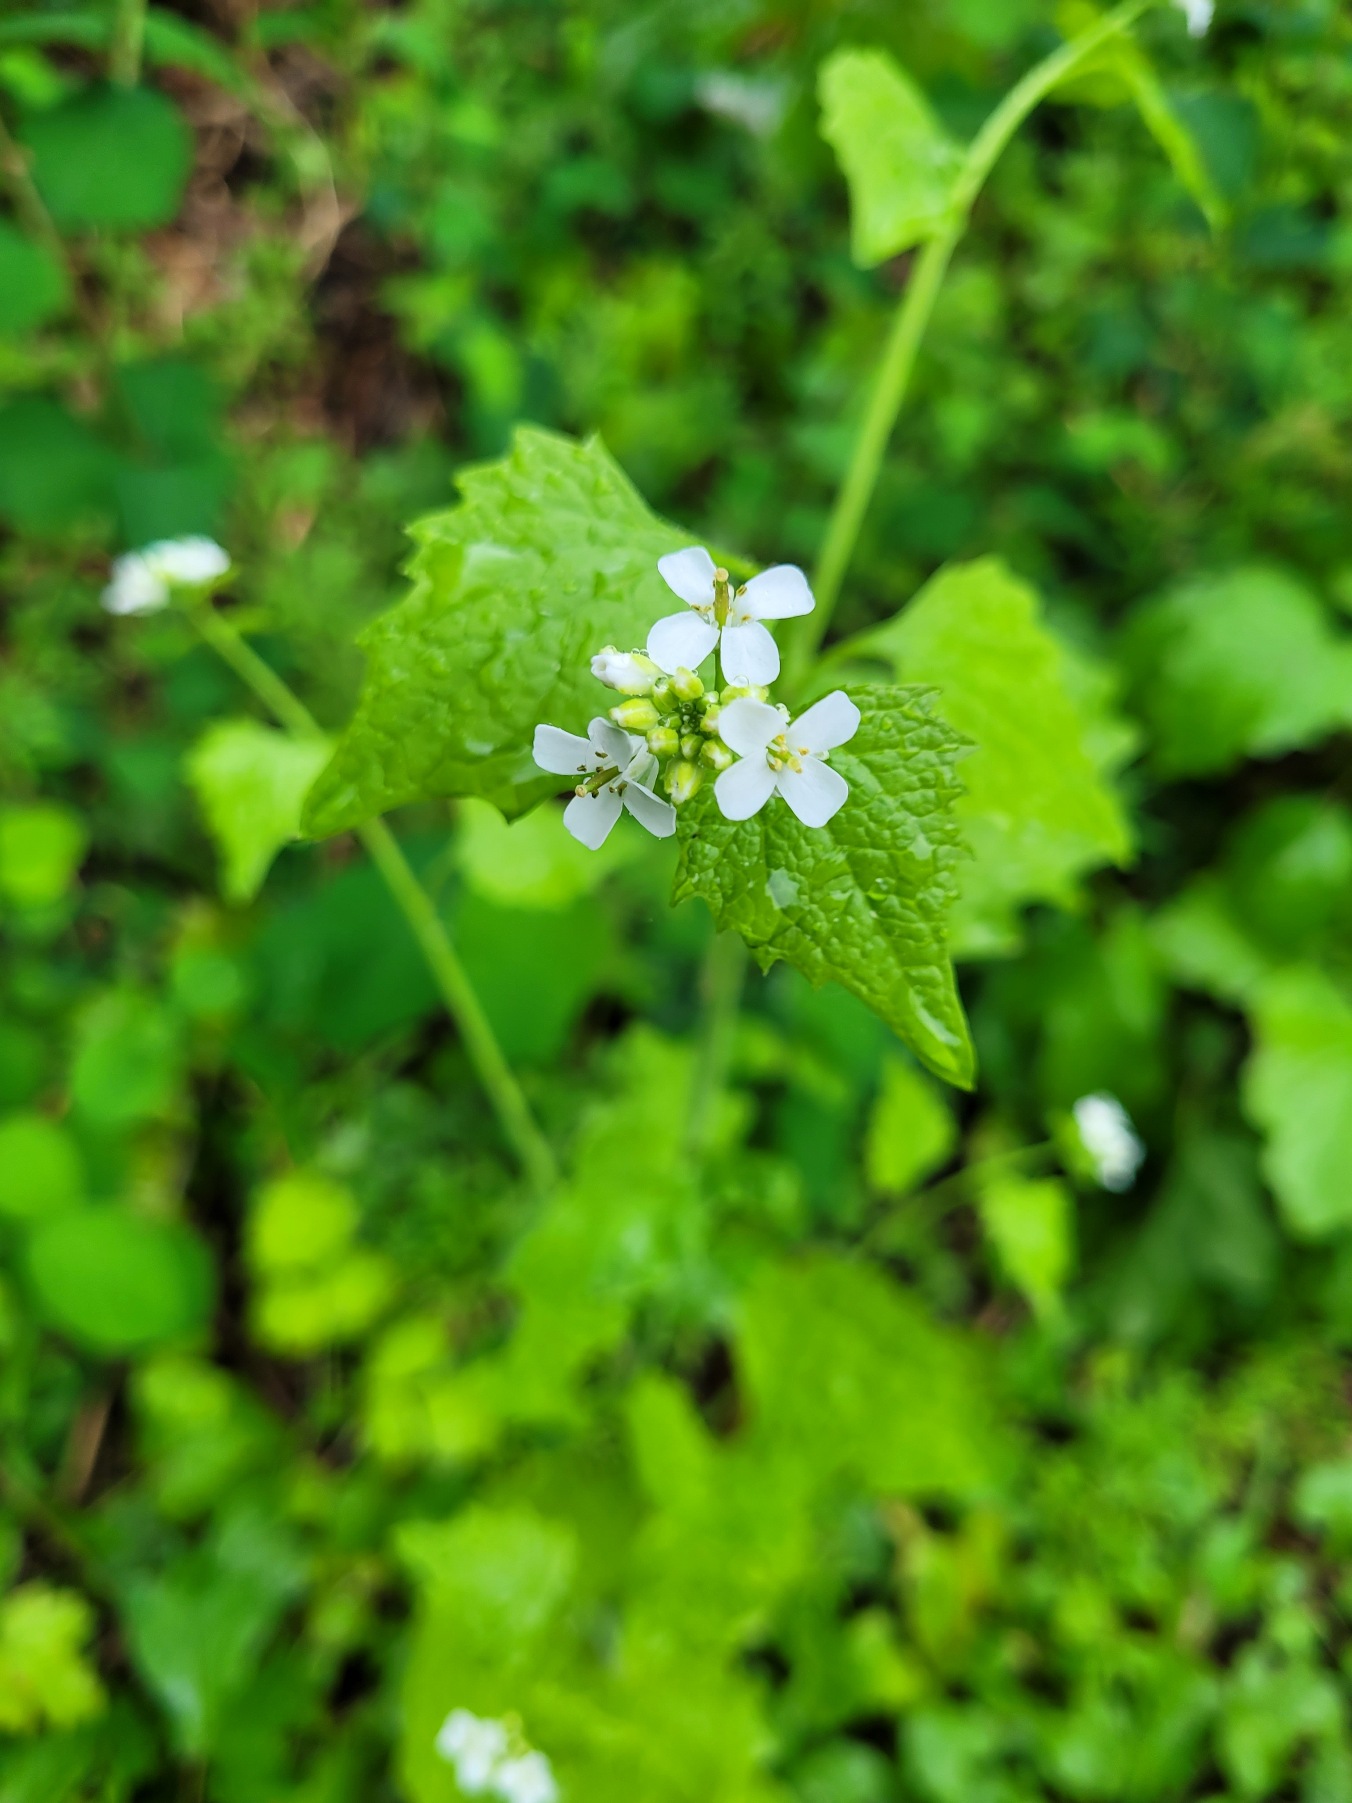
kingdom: Plantae
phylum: Tracheophyta
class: Magnoliopsida
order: Brassicales
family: Brassicaceae
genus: Alliaria
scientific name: Alliaria petiolata
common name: Løgkarse
